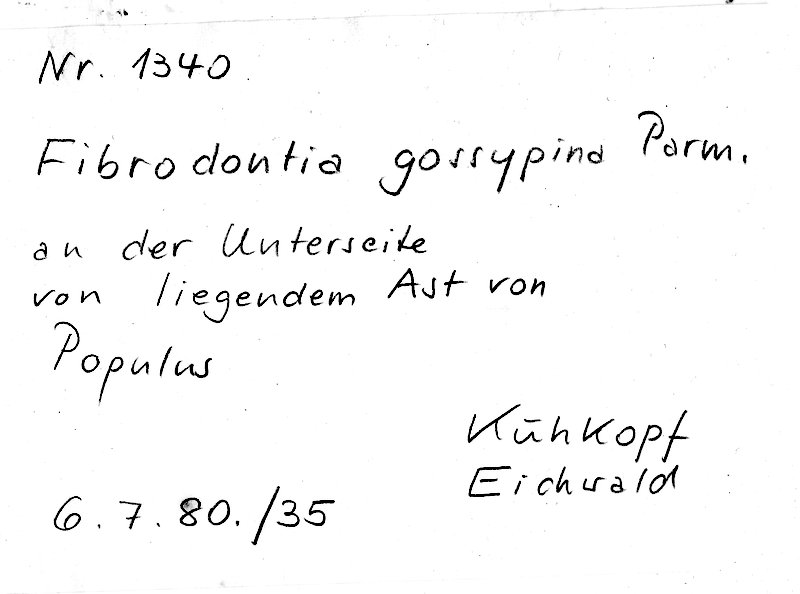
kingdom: Plantae
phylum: Tracheophyta
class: Magnoliopsida
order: Malpighiales
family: Salicaceae
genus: Populus
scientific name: Populus
